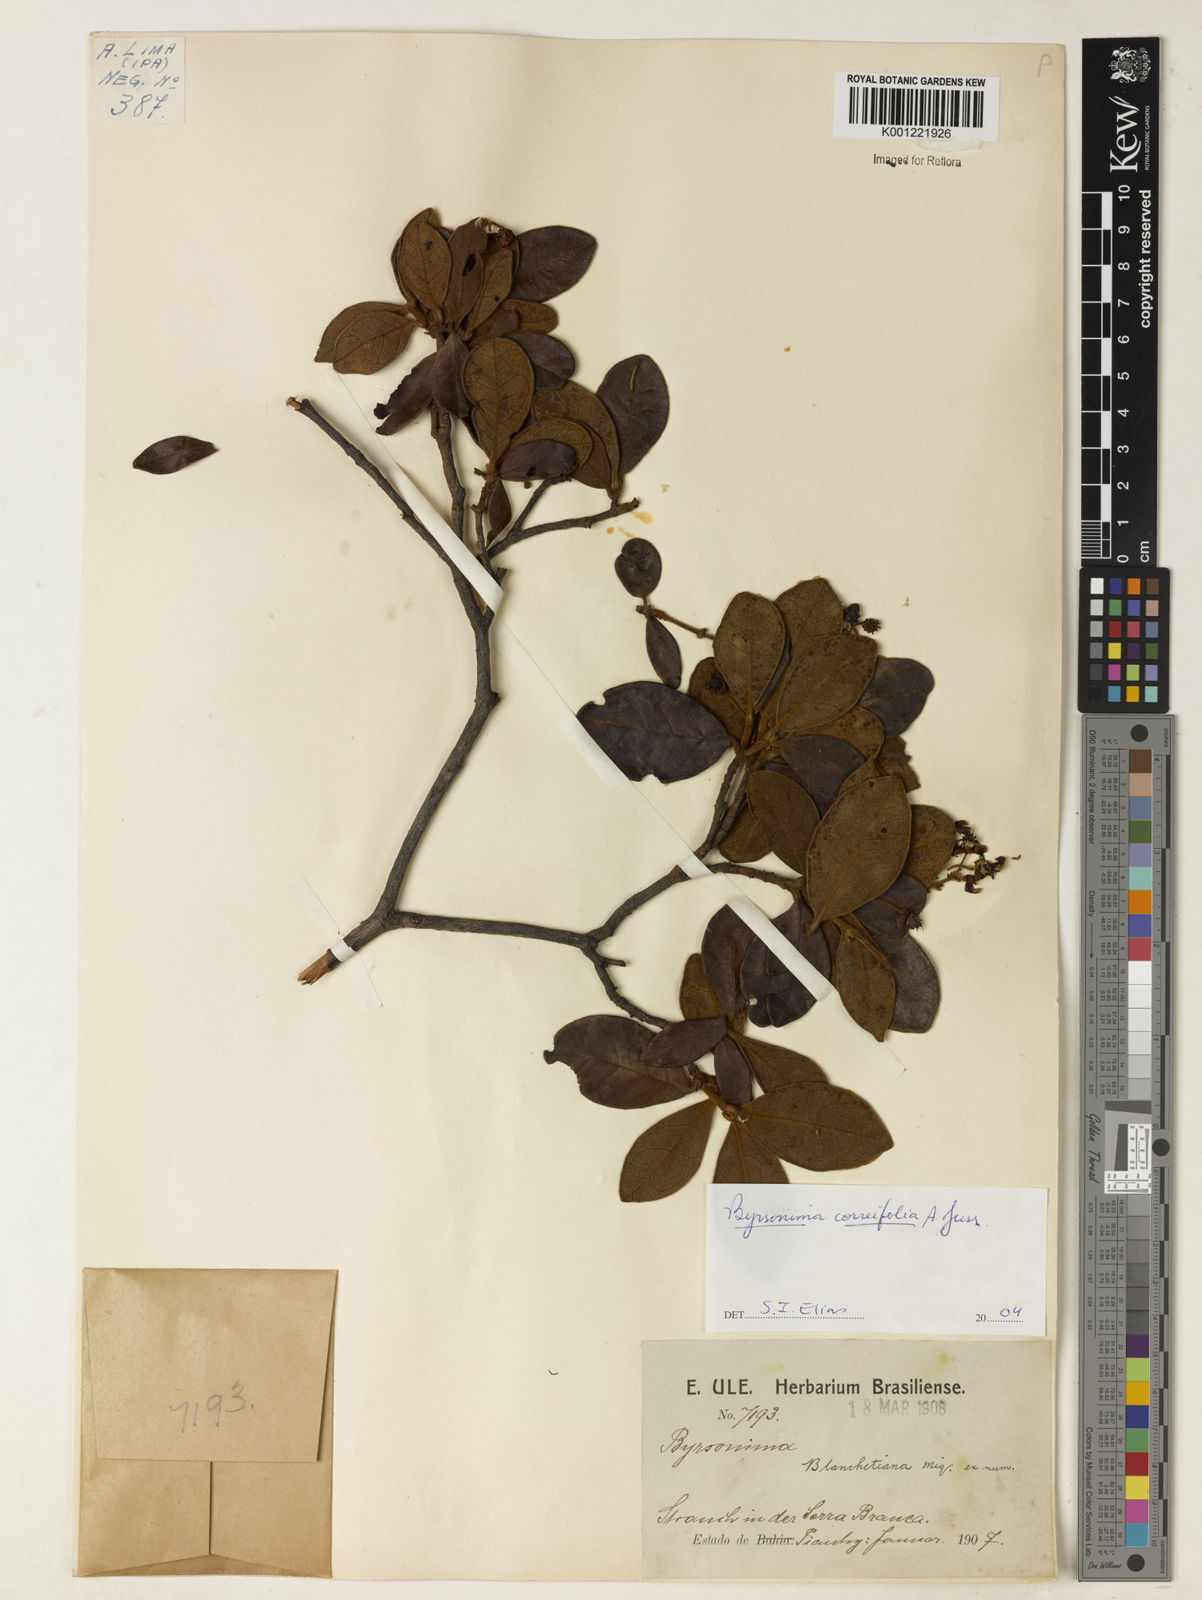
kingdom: Plantae
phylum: Tracheophyta
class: Magnoliopsida
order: Malpighiales
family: Malpighiaceae
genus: Byrsonima
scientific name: Byrsonima correifolia
